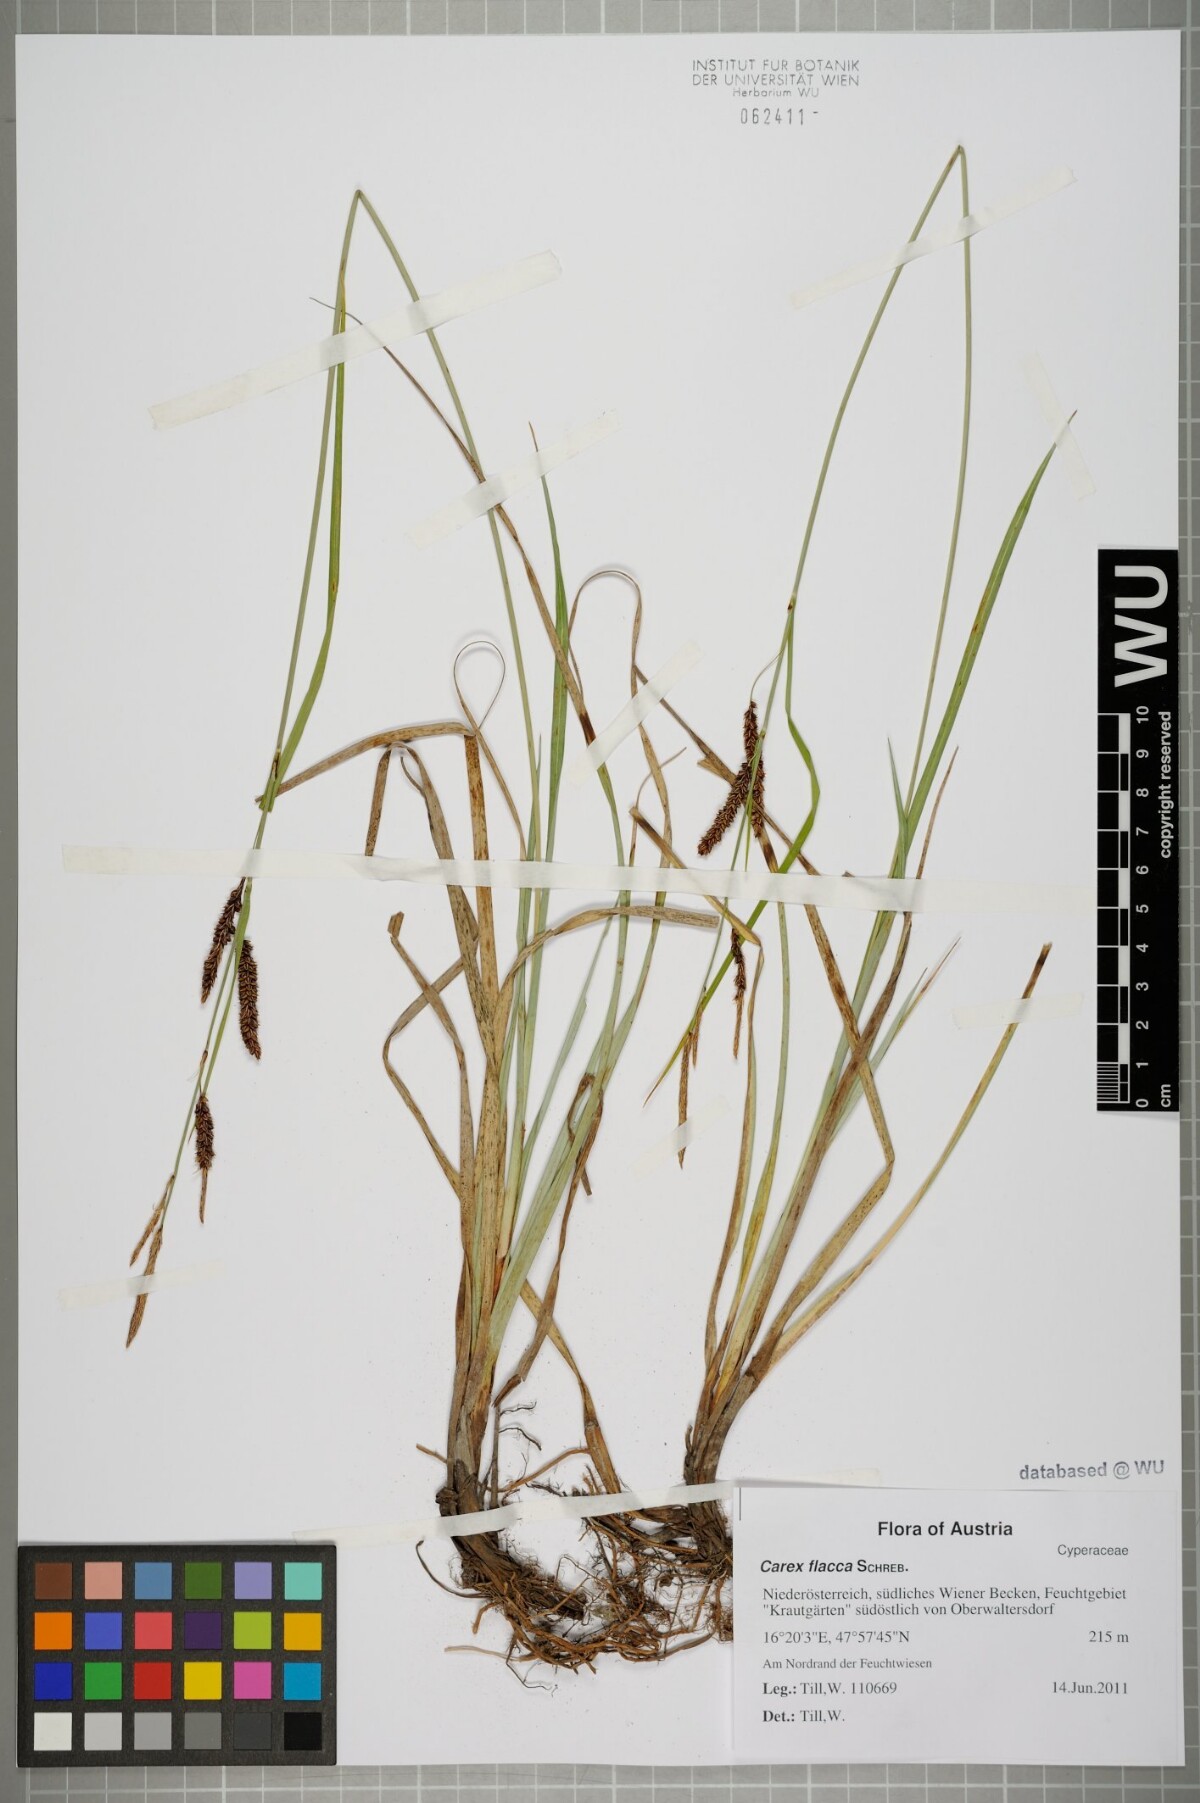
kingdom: Plantae
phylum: Tracheophyta
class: Liliopsida
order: Poales
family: Cyperaceae
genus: Carex
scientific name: Carex flacca
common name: Glaucous sedge
